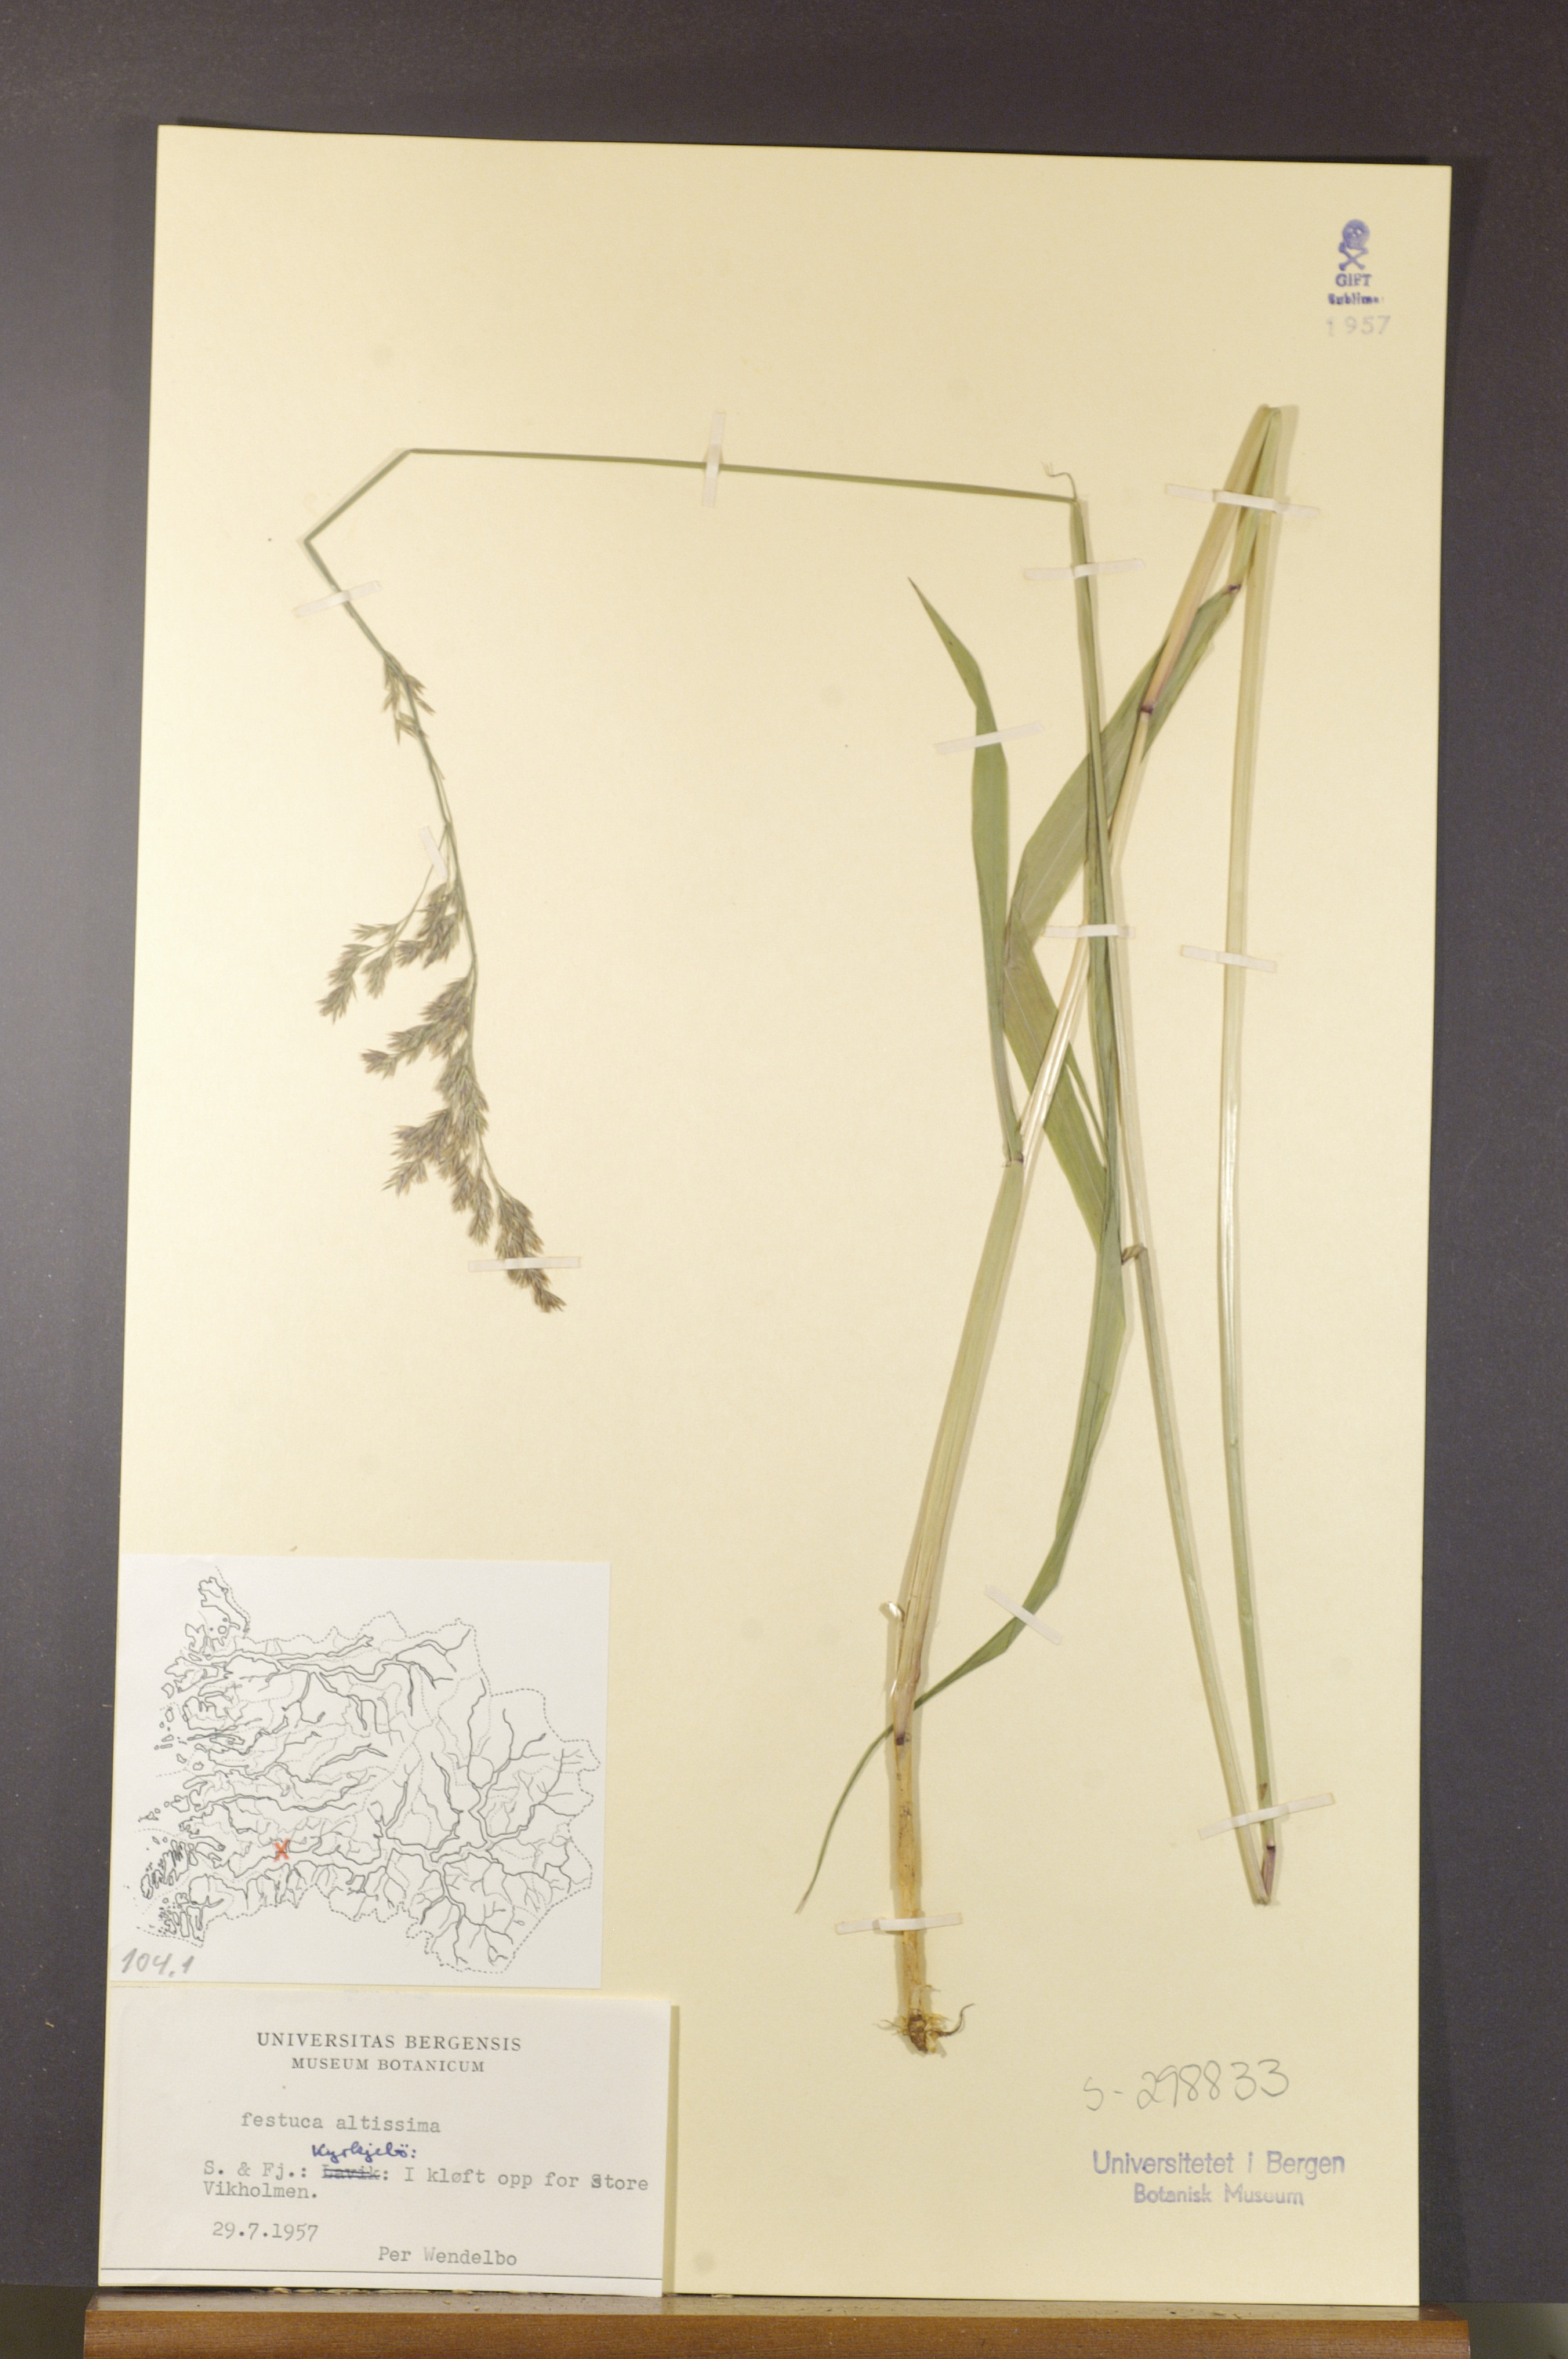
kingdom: Plantae
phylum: Tracheophyta
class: Liliopsida
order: Poales
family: Poaceae
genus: Festuca
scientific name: Festuca altissima
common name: Wood fescue
